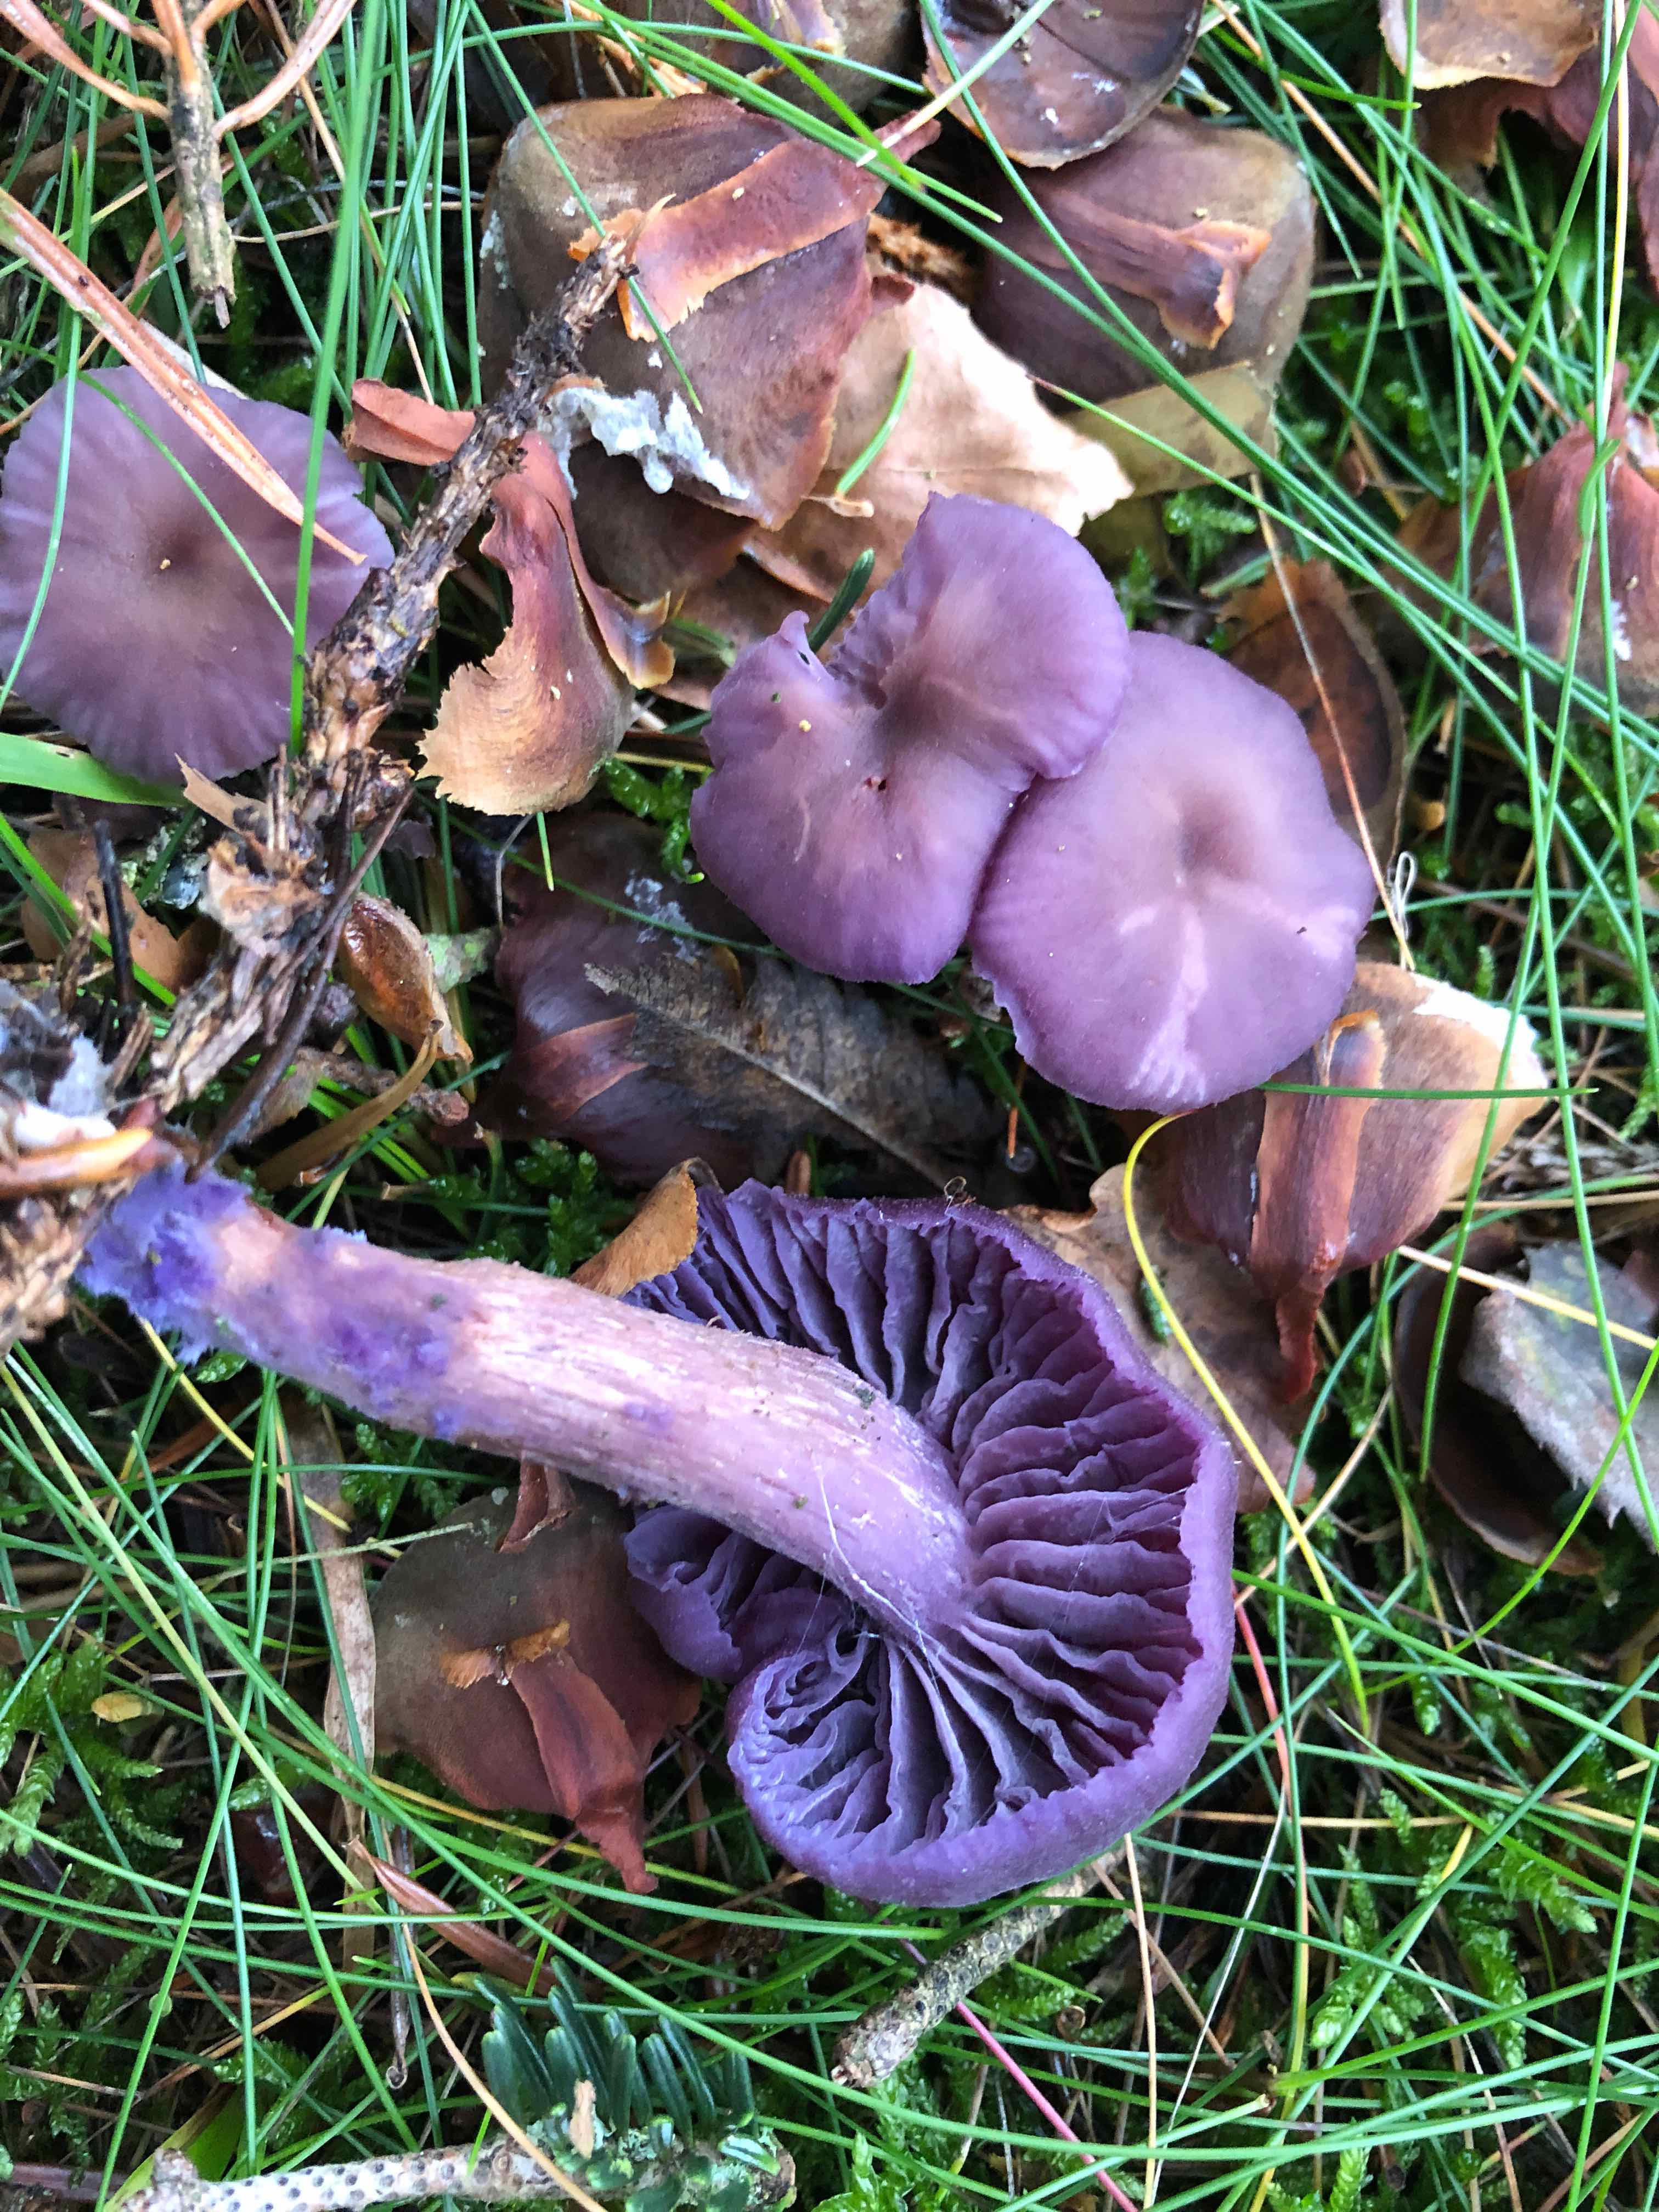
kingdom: Fungi
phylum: Basidiomycota
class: Agaricomycetes
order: Agaricales
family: Hydnangiaceae
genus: Laccaria
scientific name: Laccaria amethystina
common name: violet ametysthat
